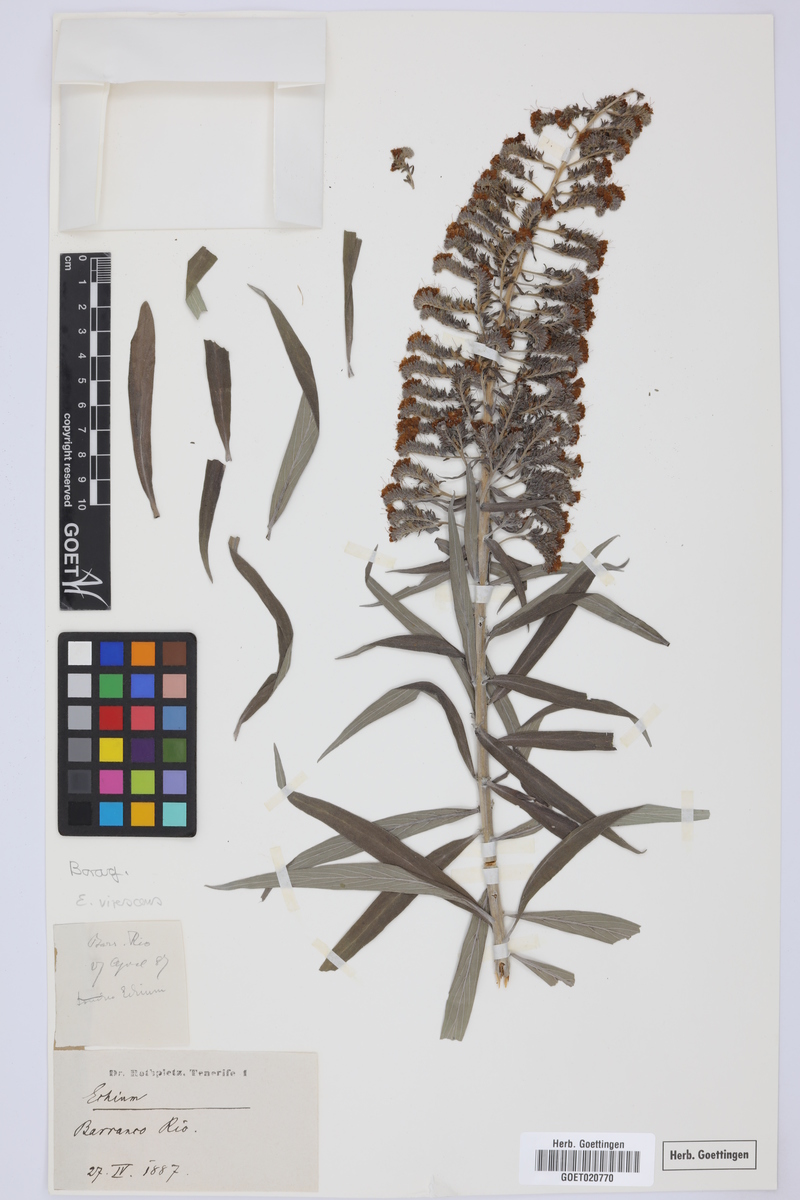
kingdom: Plantae
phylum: Tracheophyta
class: Magnoliopsida
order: Boraginales
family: Boraginaceae
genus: Echium
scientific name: Echium virescens
